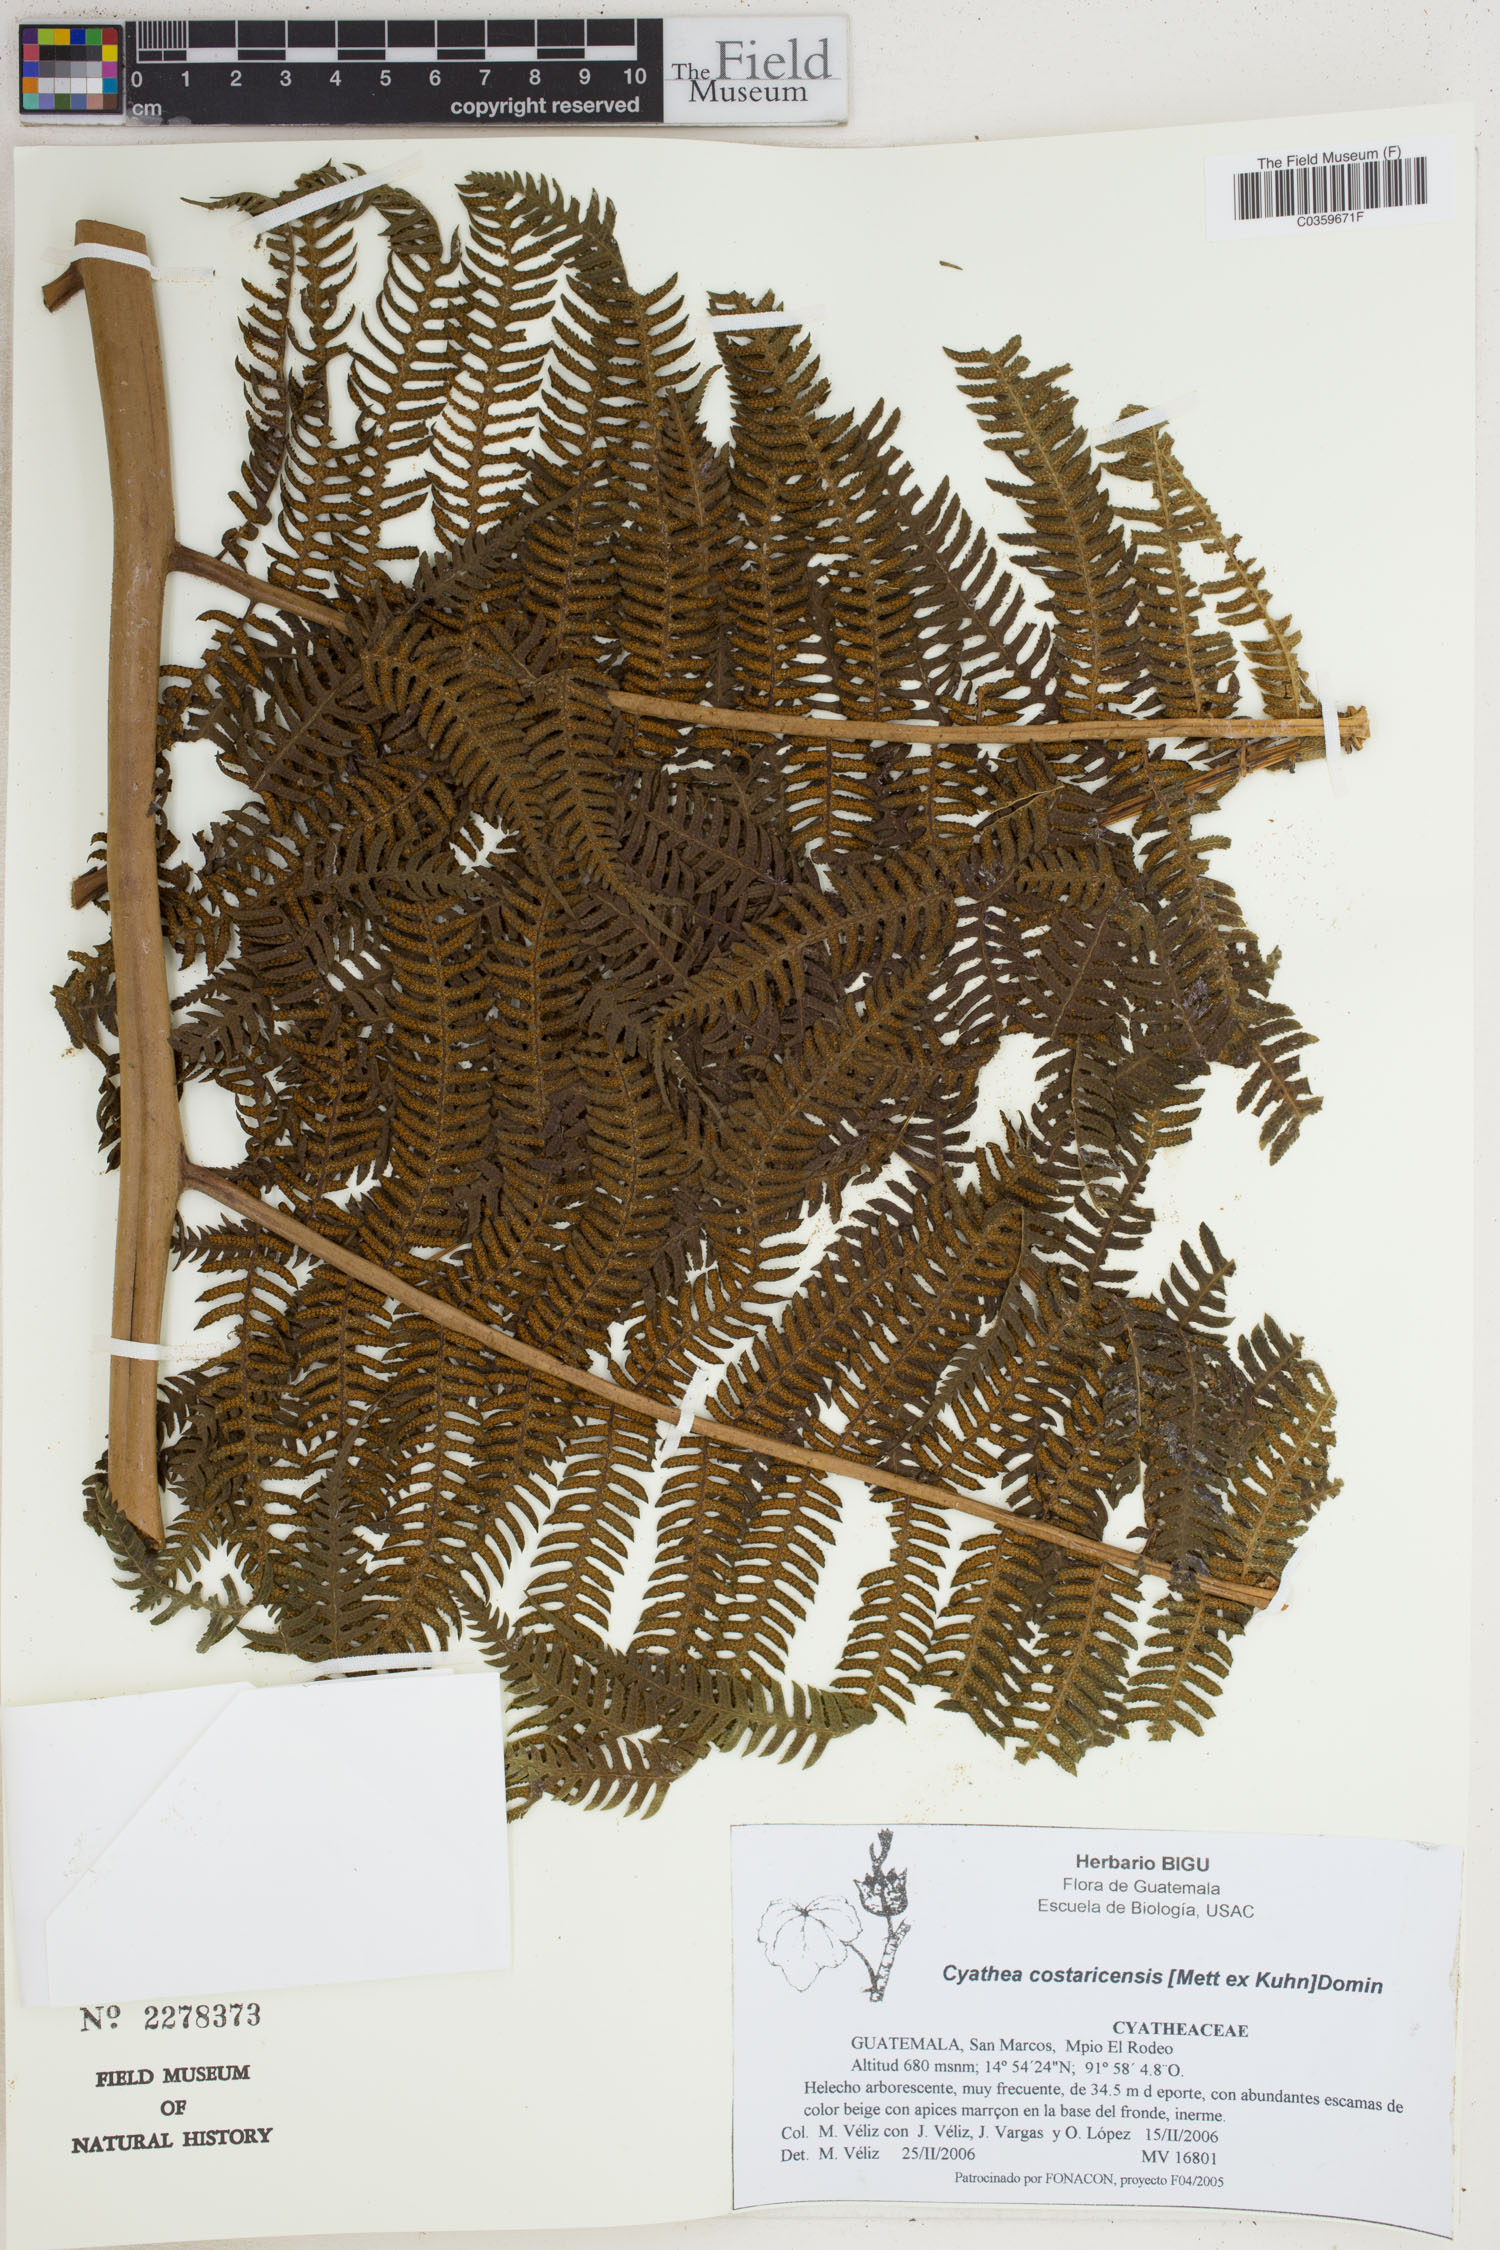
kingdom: Plantae
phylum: Tracheophyta
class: Polypodiopsida
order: Cyatheales
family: Cyatheaceae
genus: Cyathea
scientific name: Cyathea costaricensis
